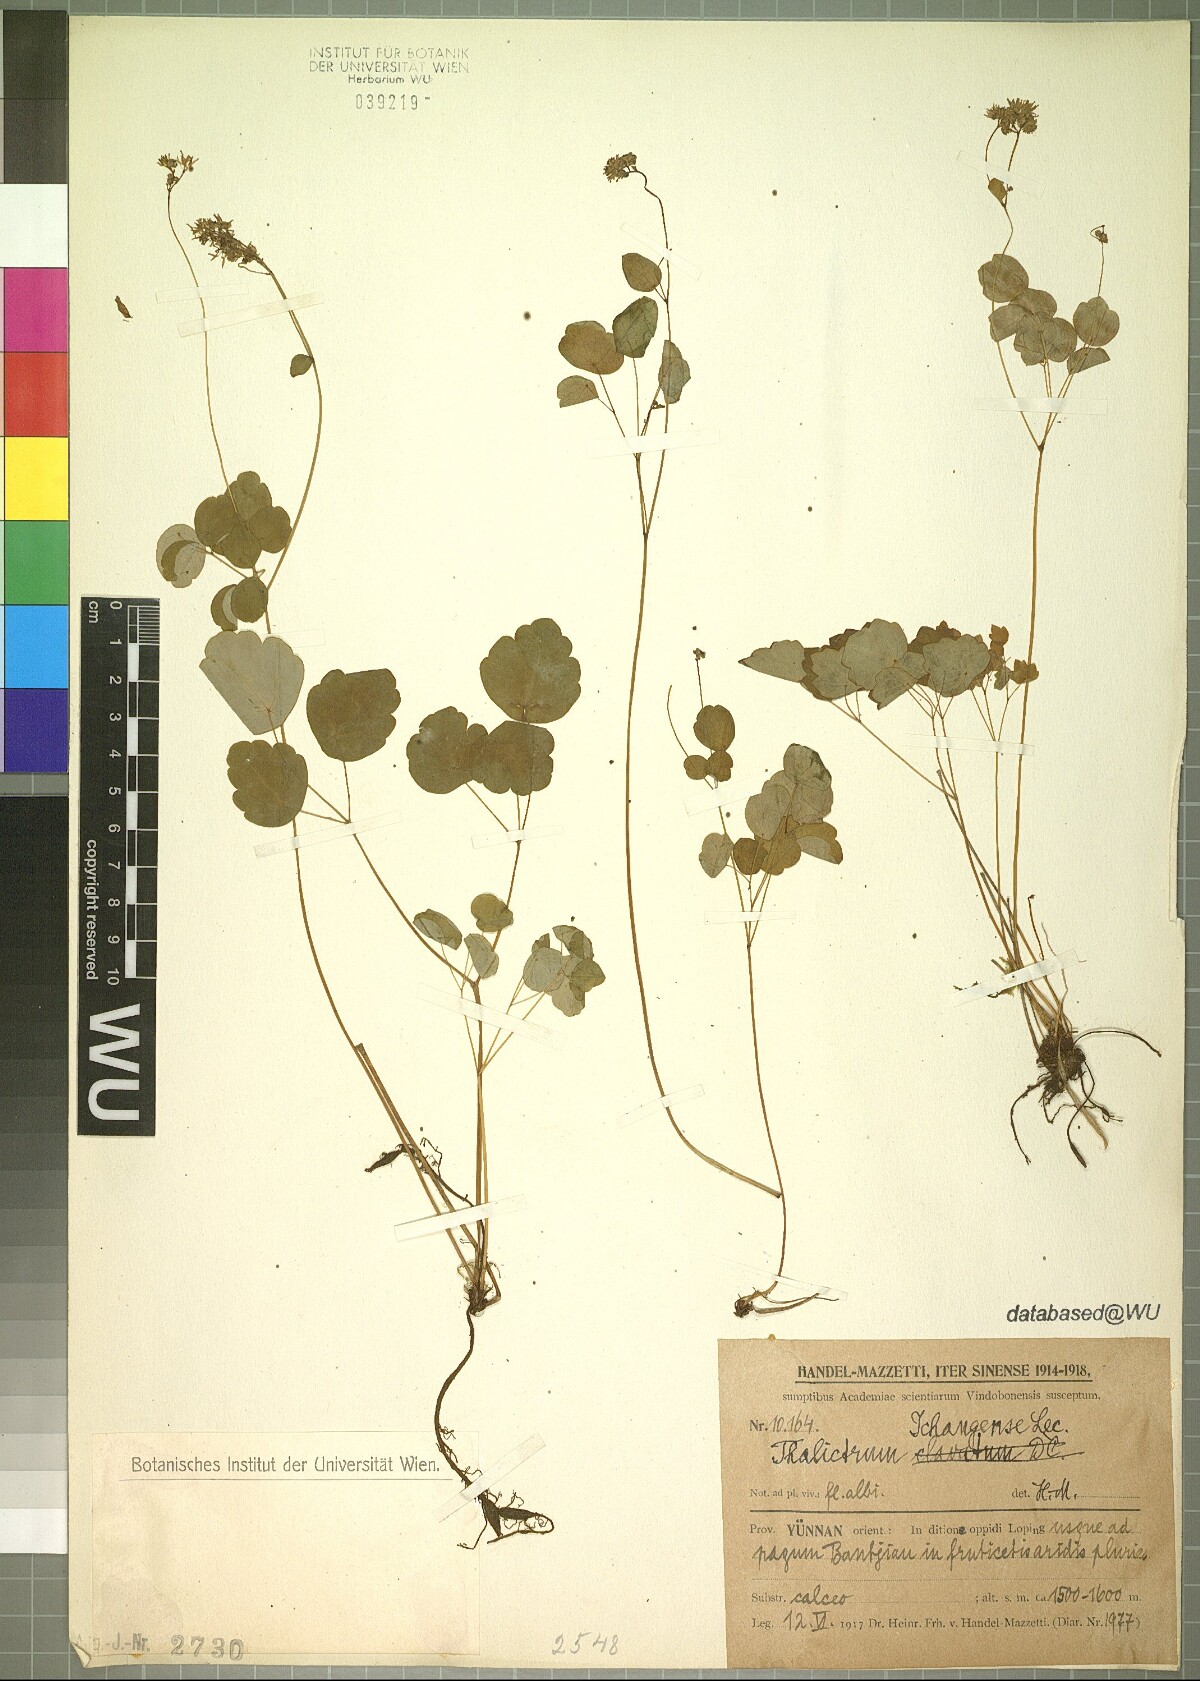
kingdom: Plantae
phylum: Tracheophyta
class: Magnoliopsida
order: Ranunculales
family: Ranunculaceae
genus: Thalictrum
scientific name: Thalictrum ichangense
